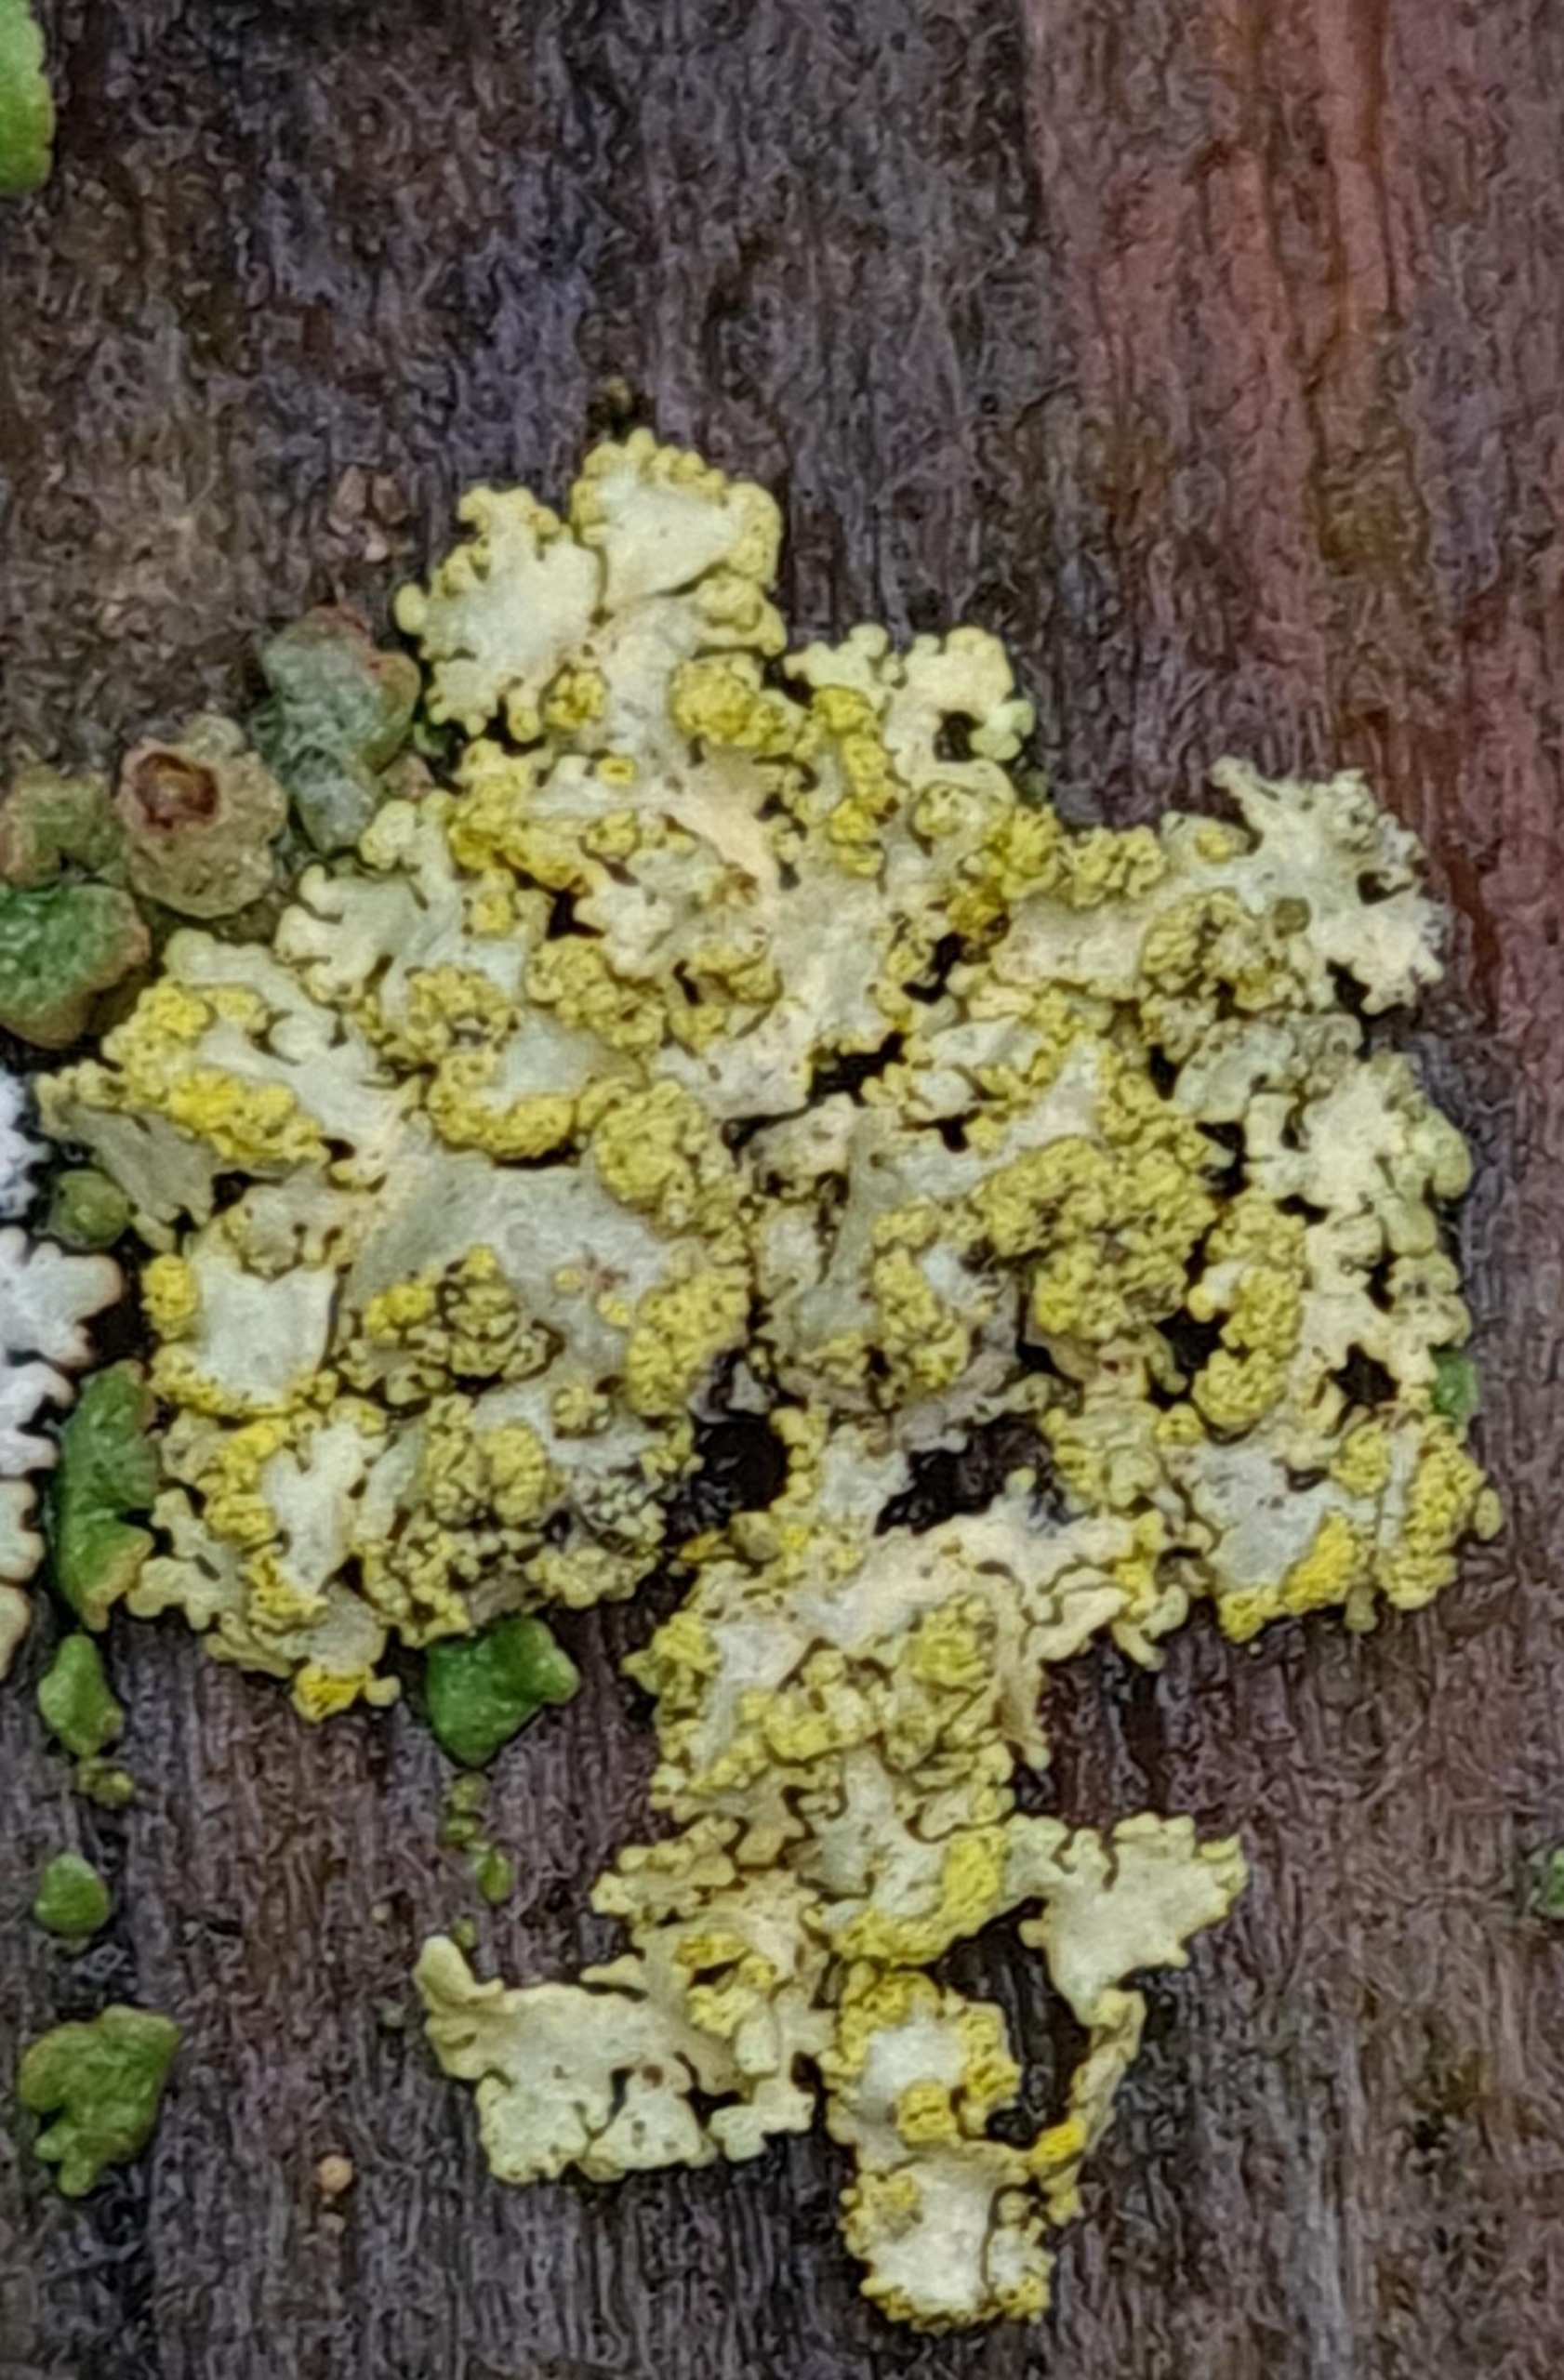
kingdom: Fungi
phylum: Ascomycota
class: Lecanoromycetes
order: Lecanorales
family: Parmeliaceae
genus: Vulpicida
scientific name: Vulpicida pinastri
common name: Gul kruslav
